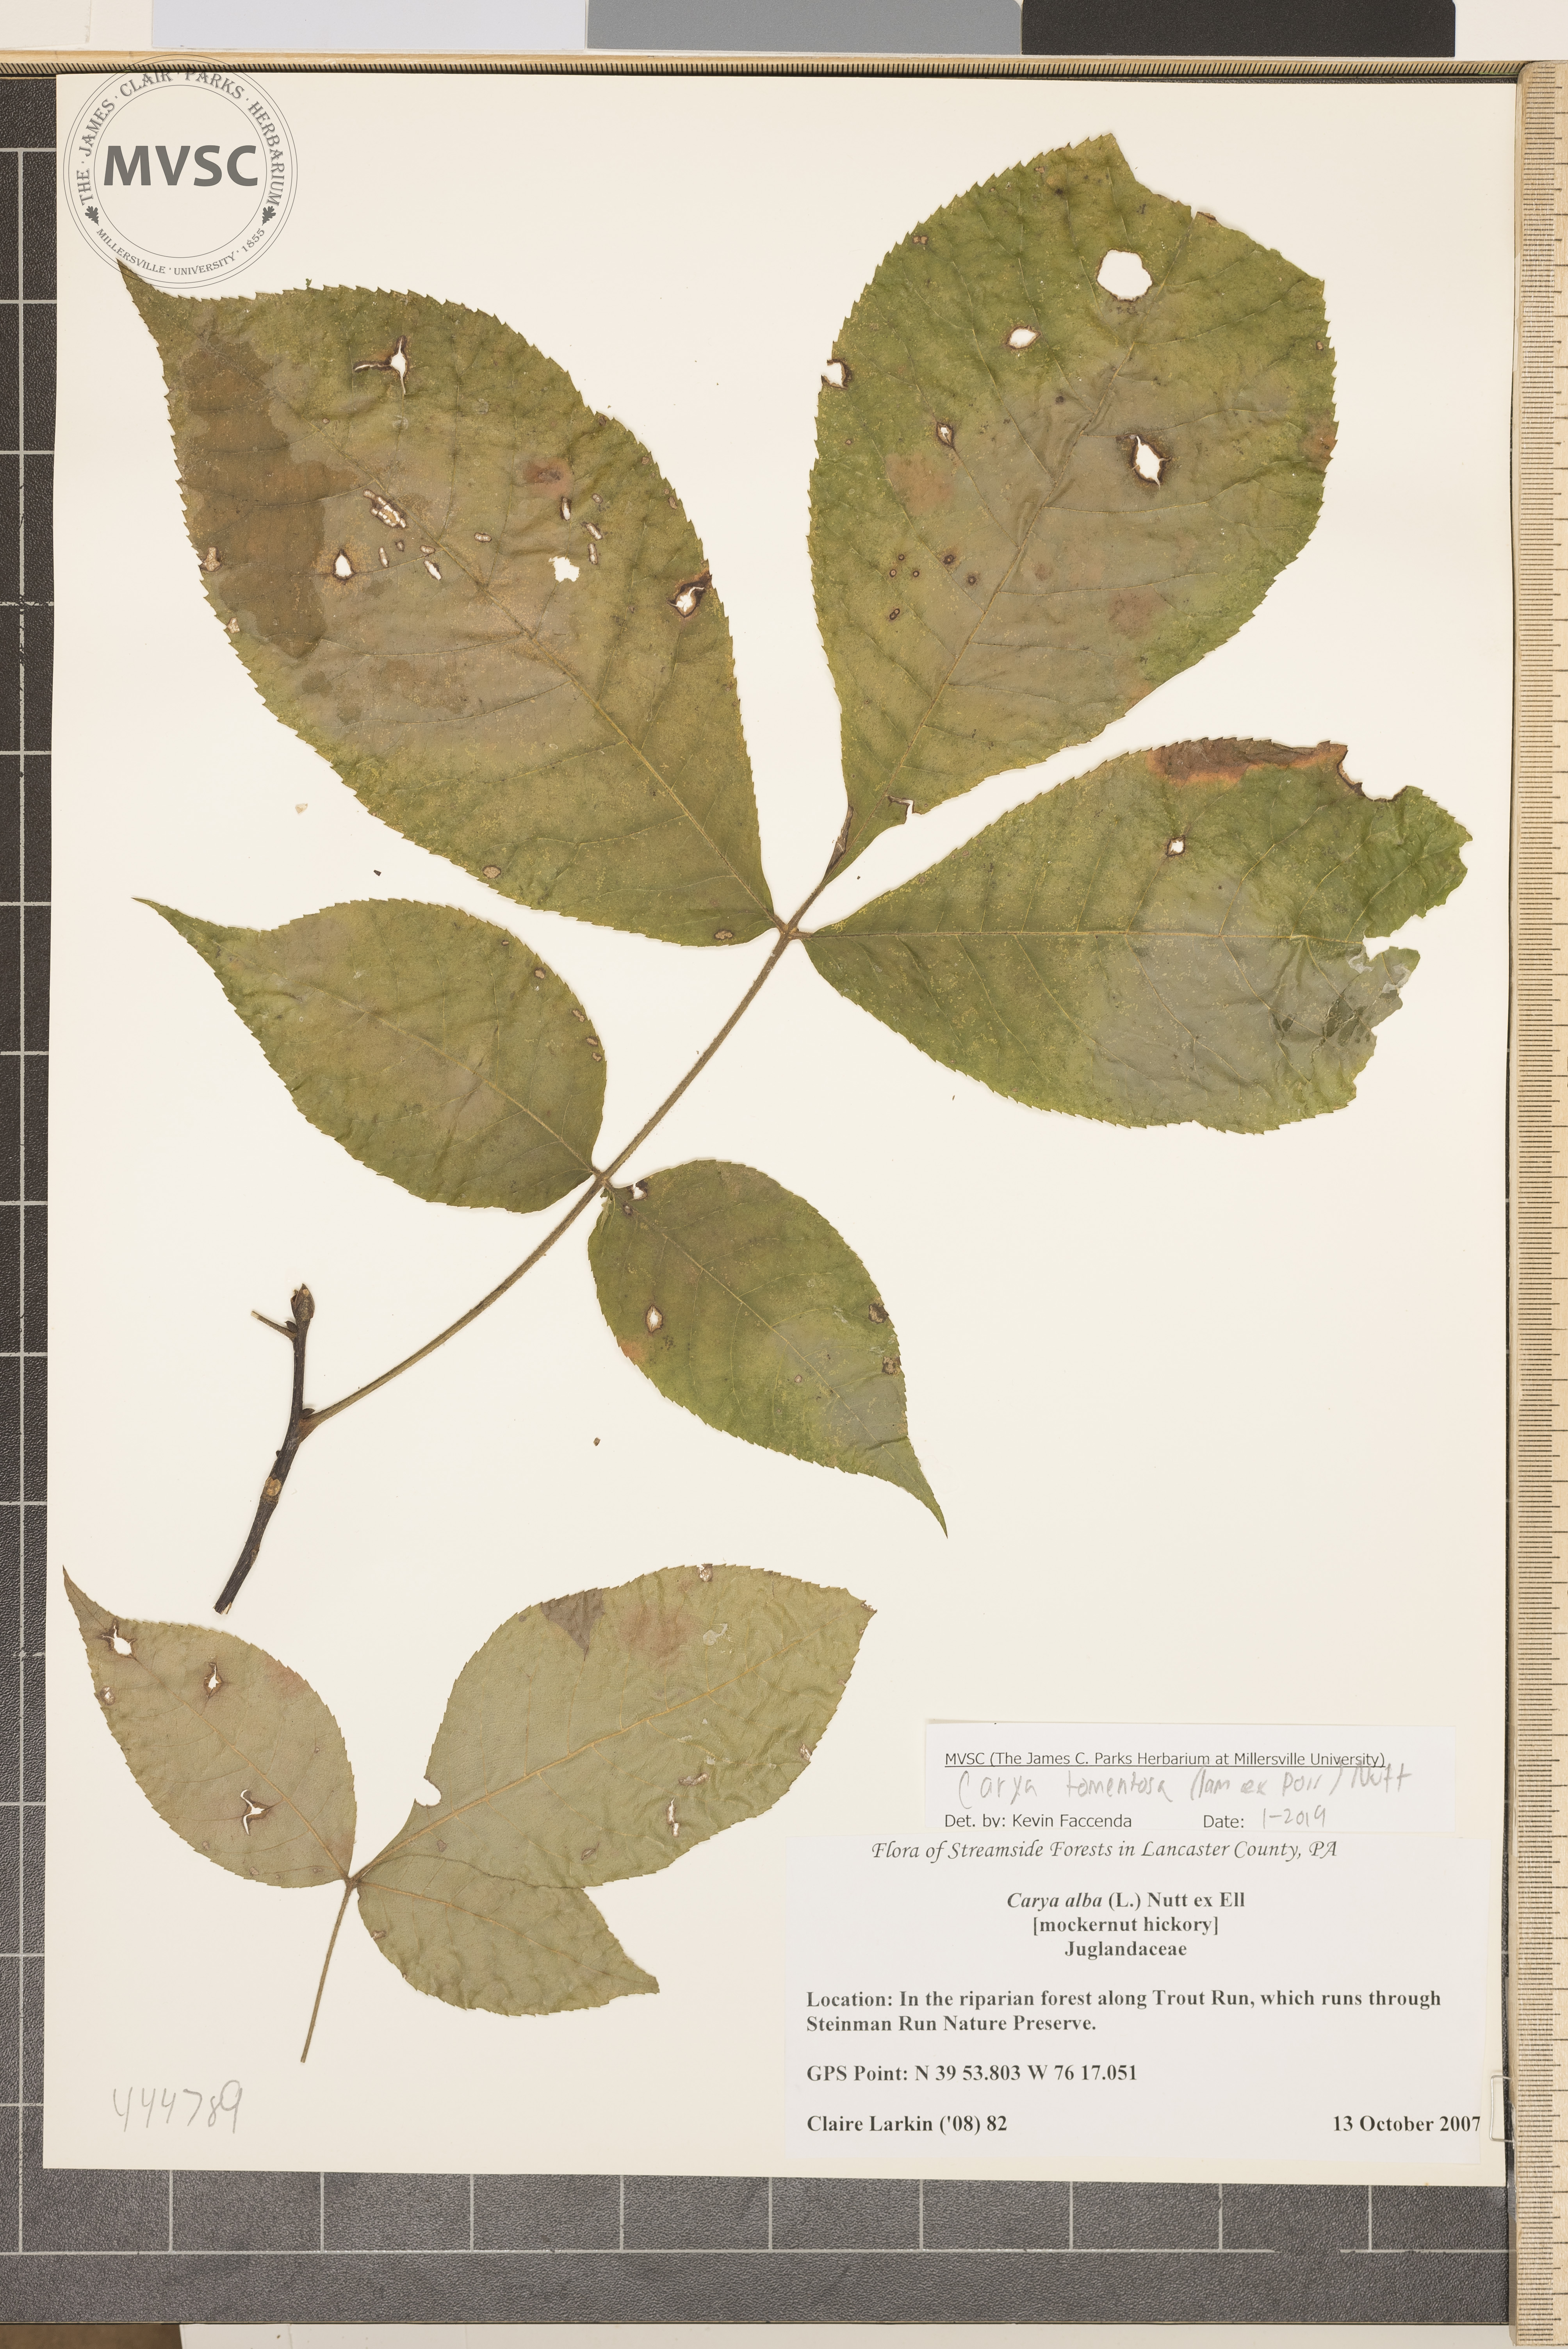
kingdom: Plantae
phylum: Tracheophyta
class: Magnoliopsida
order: Fagales
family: Juglandaceae
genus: Carya
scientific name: Carya alba
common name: Mockernut hickory
